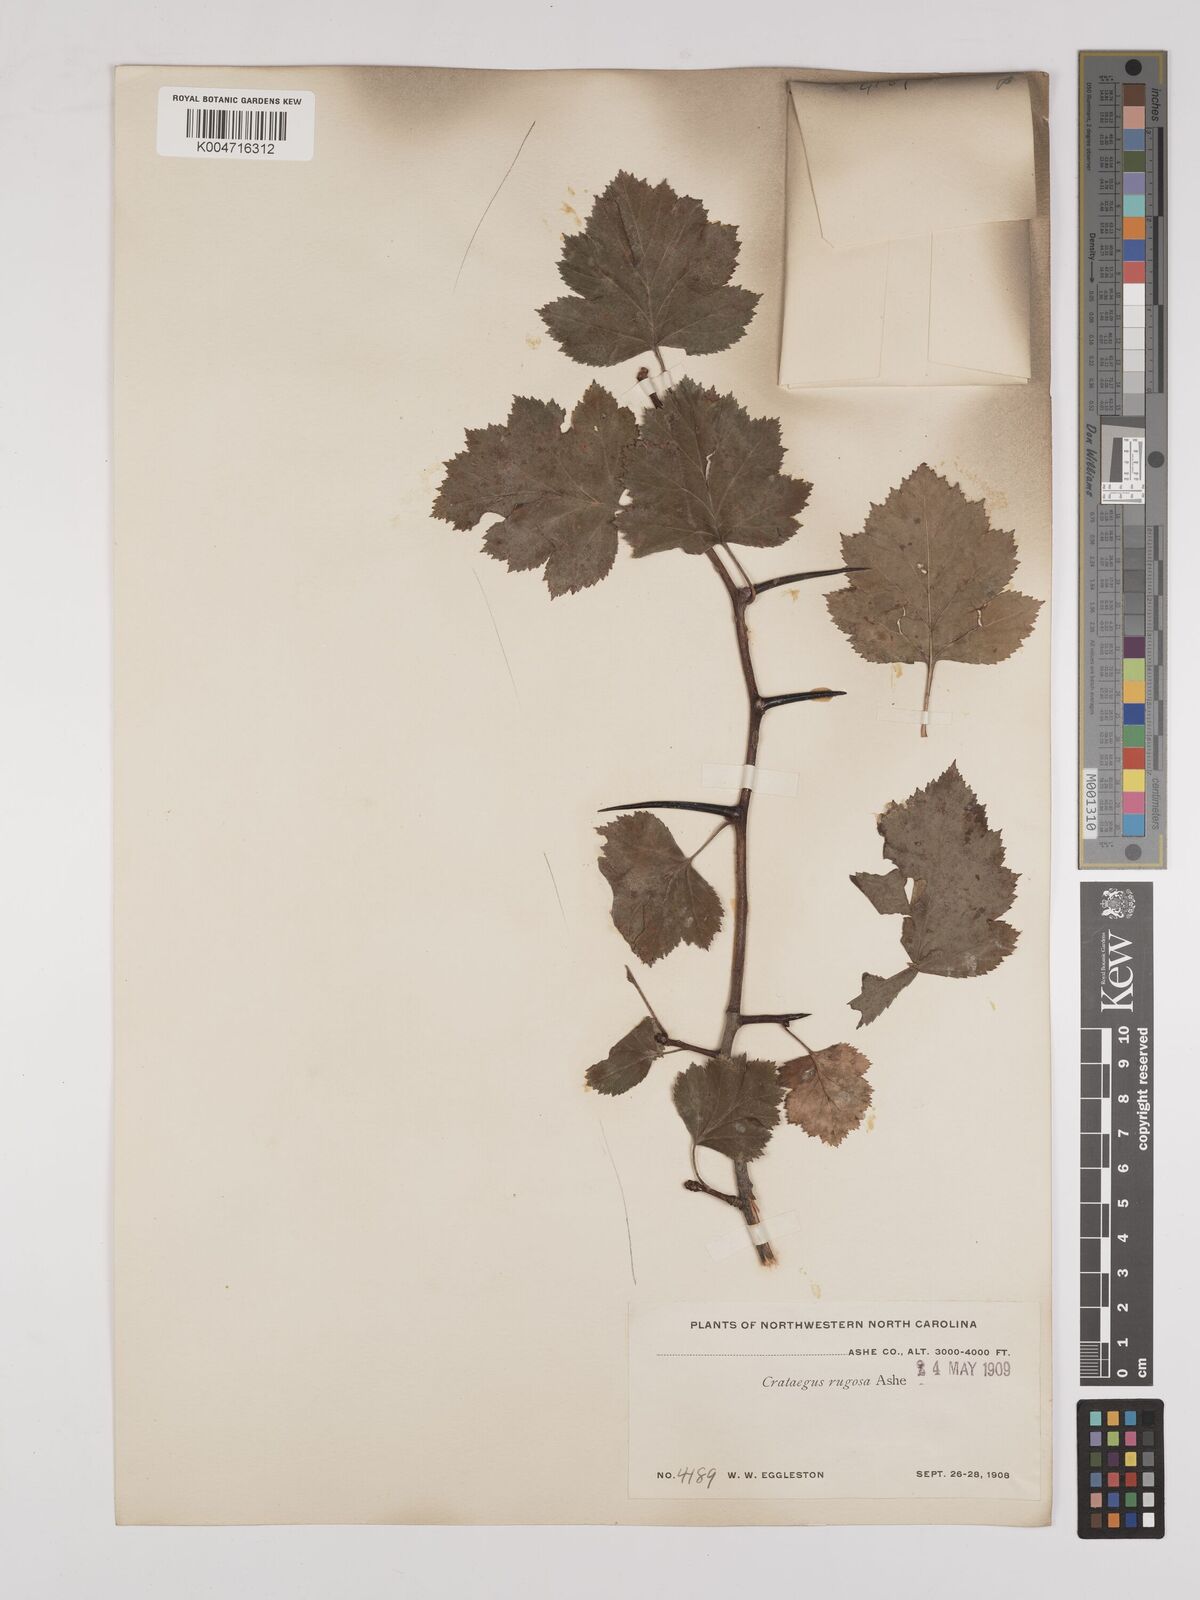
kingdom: Plantae
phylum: Tracheophyta
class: Magnoliopsida
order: Rosales
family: Rosaceae
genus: Crataegus
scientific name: Crataegus pruinosa
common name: Waxy-fruit hawthorn
